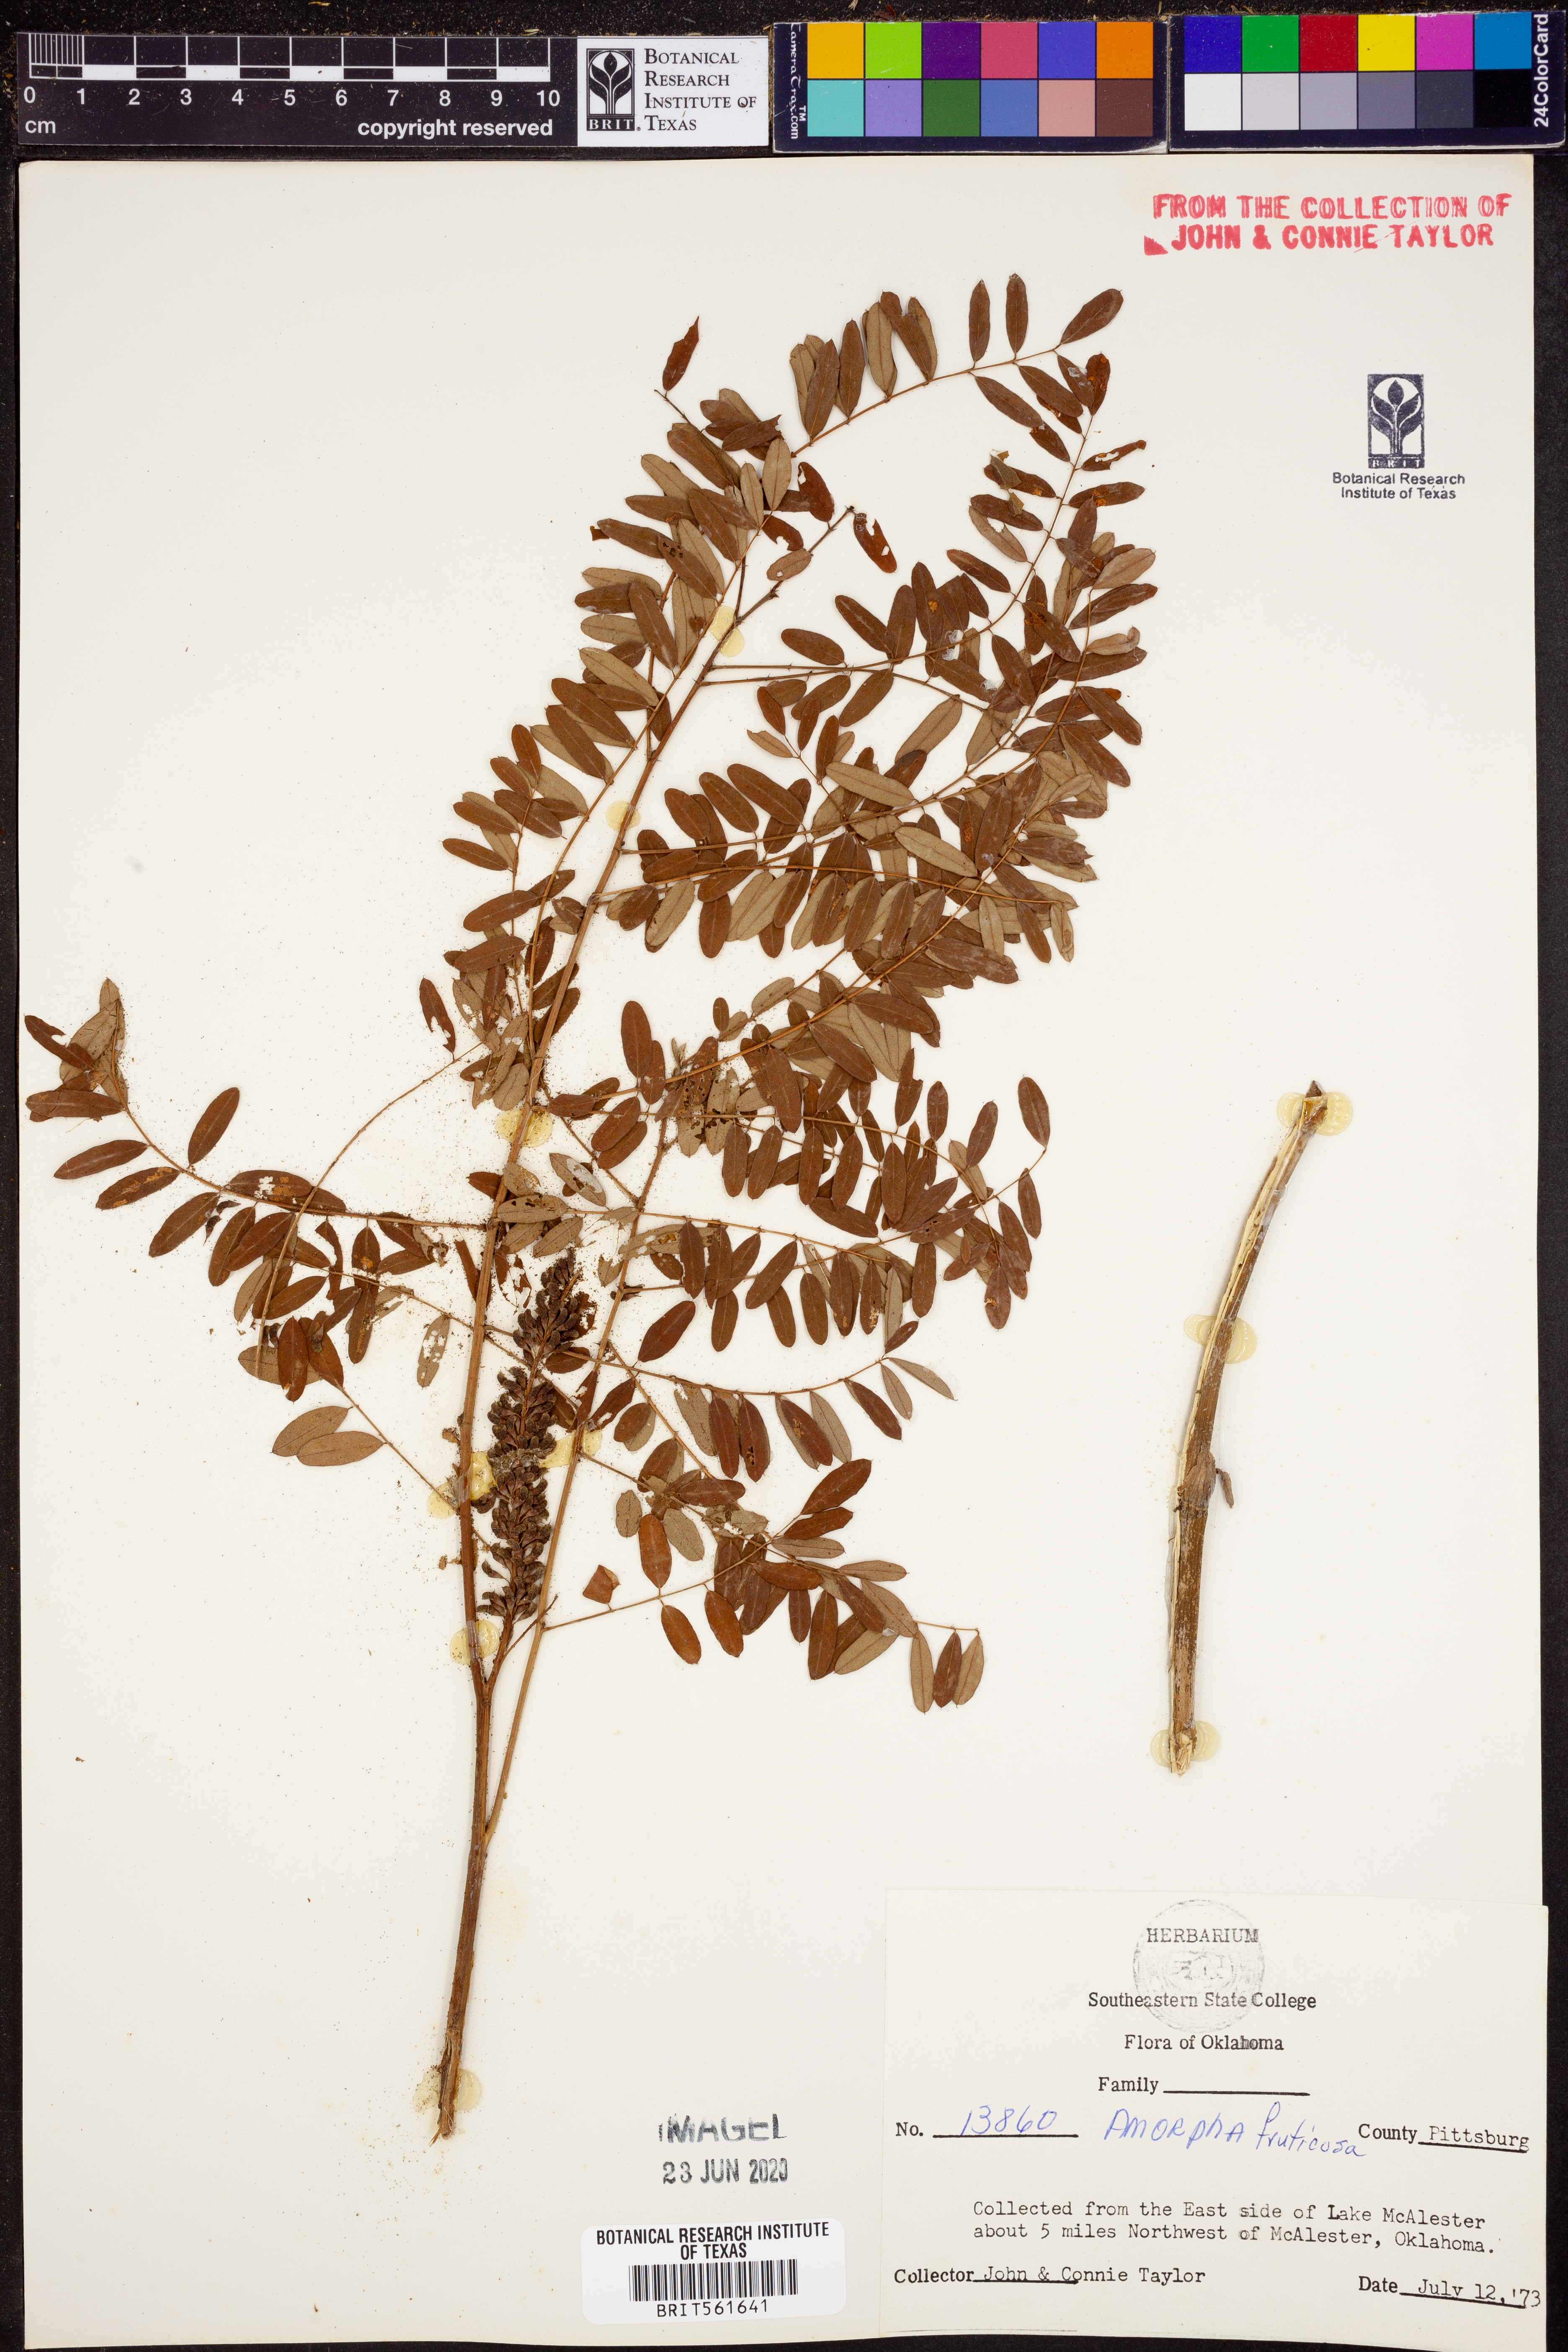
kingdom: Plantae
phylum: Tracheophyta
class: Magnoliopsida
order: Fabales
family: Fabaceae
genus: Amorpha
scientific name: Amorpha fruticosa
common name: False indigo
